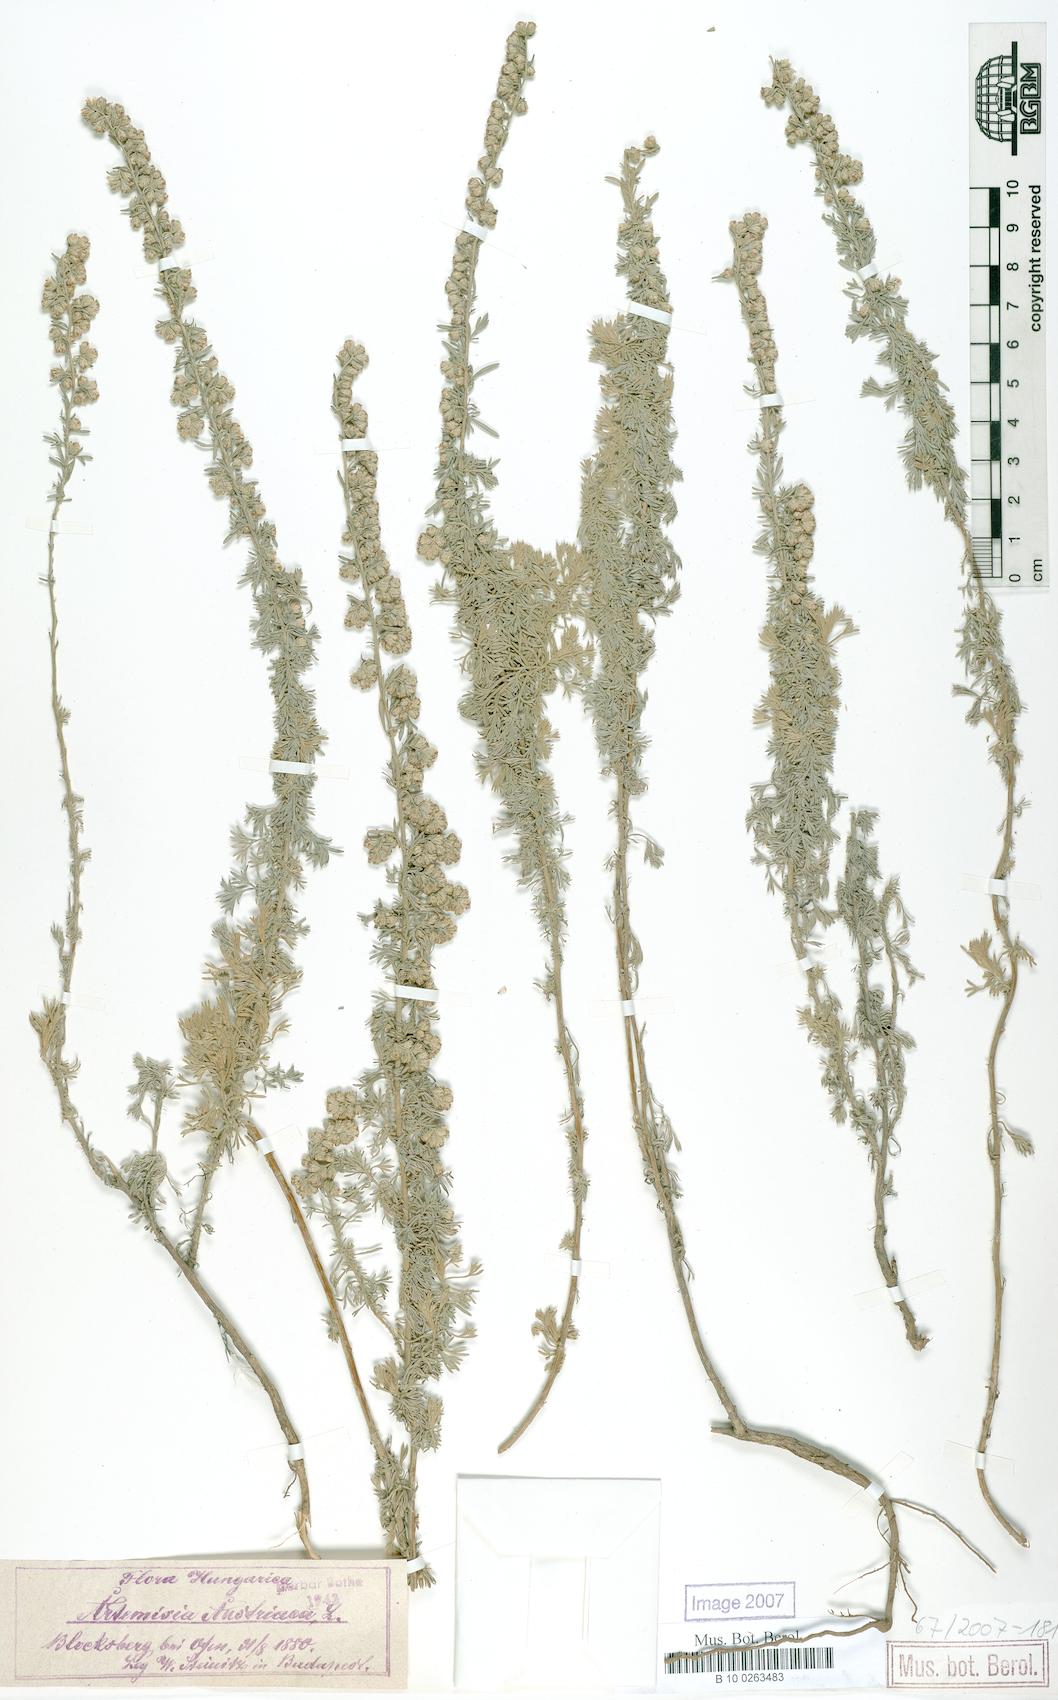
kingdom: Plantae
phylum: Tracheophyta
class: Magnoliopsida
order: Asterales
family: Asteraceae
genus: Artemisia
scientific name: Artemisia austriaca
